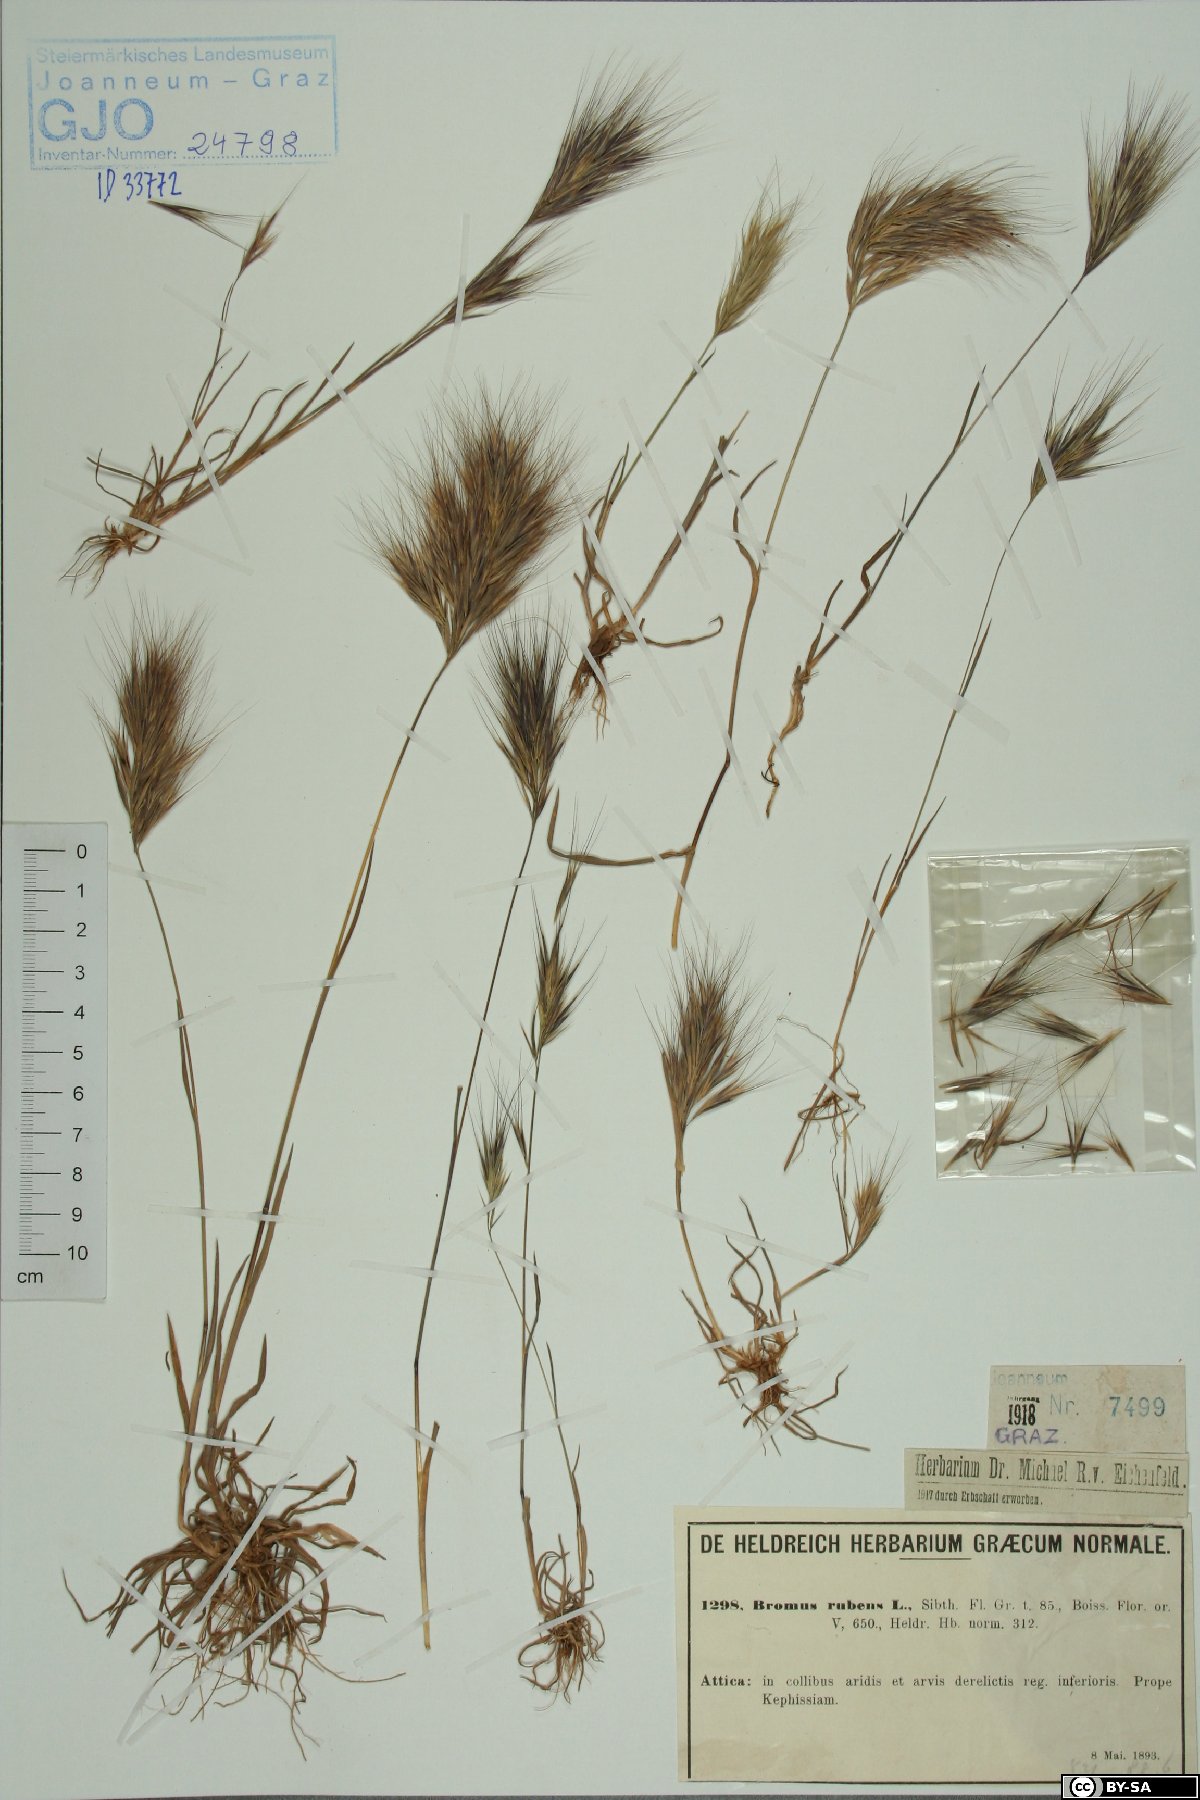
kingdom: Plantae
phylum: Tracheophyta
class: Liliopsida
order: Poales
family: Poaceae
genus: Bromus
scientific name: Bromus rubens
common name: Red brome
